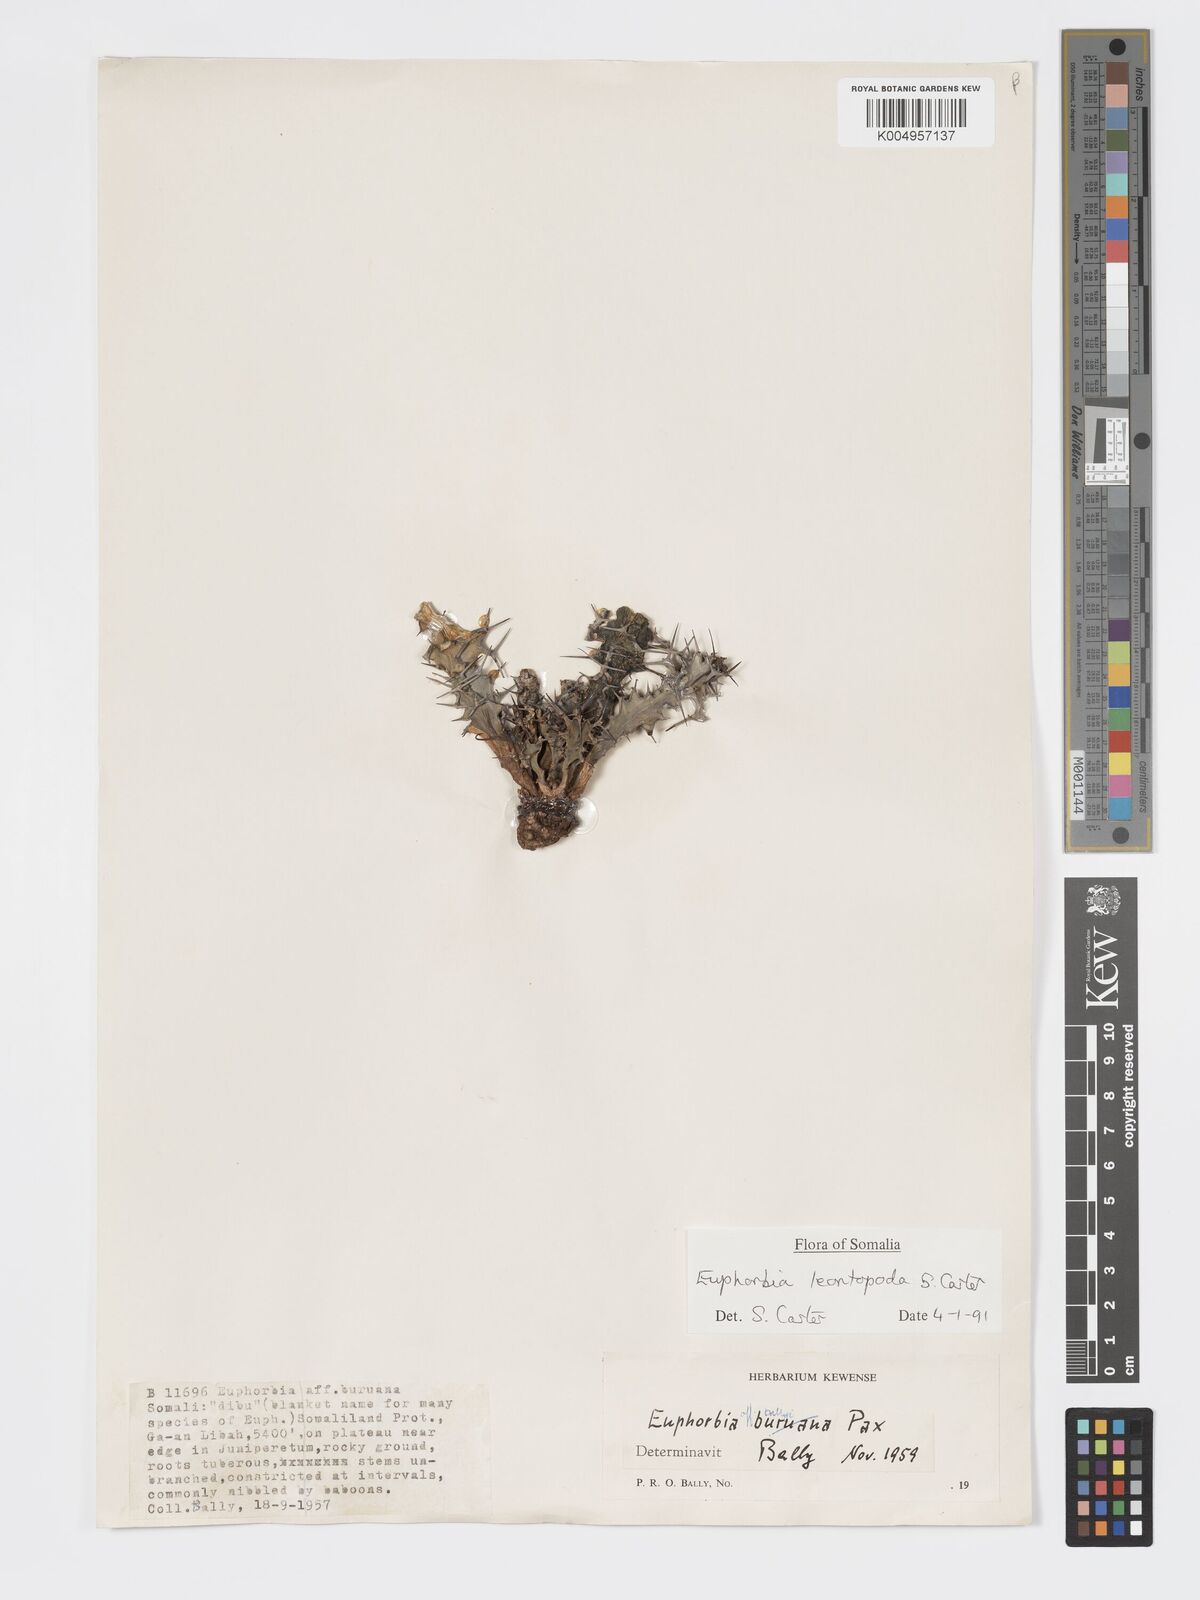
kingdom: Plantae
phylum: Tracheophyta
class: Magnoliopsida
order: Malpighiales
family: Euphorbiaceae
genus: Euphorbia
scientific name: Euphorbia leontopoda
